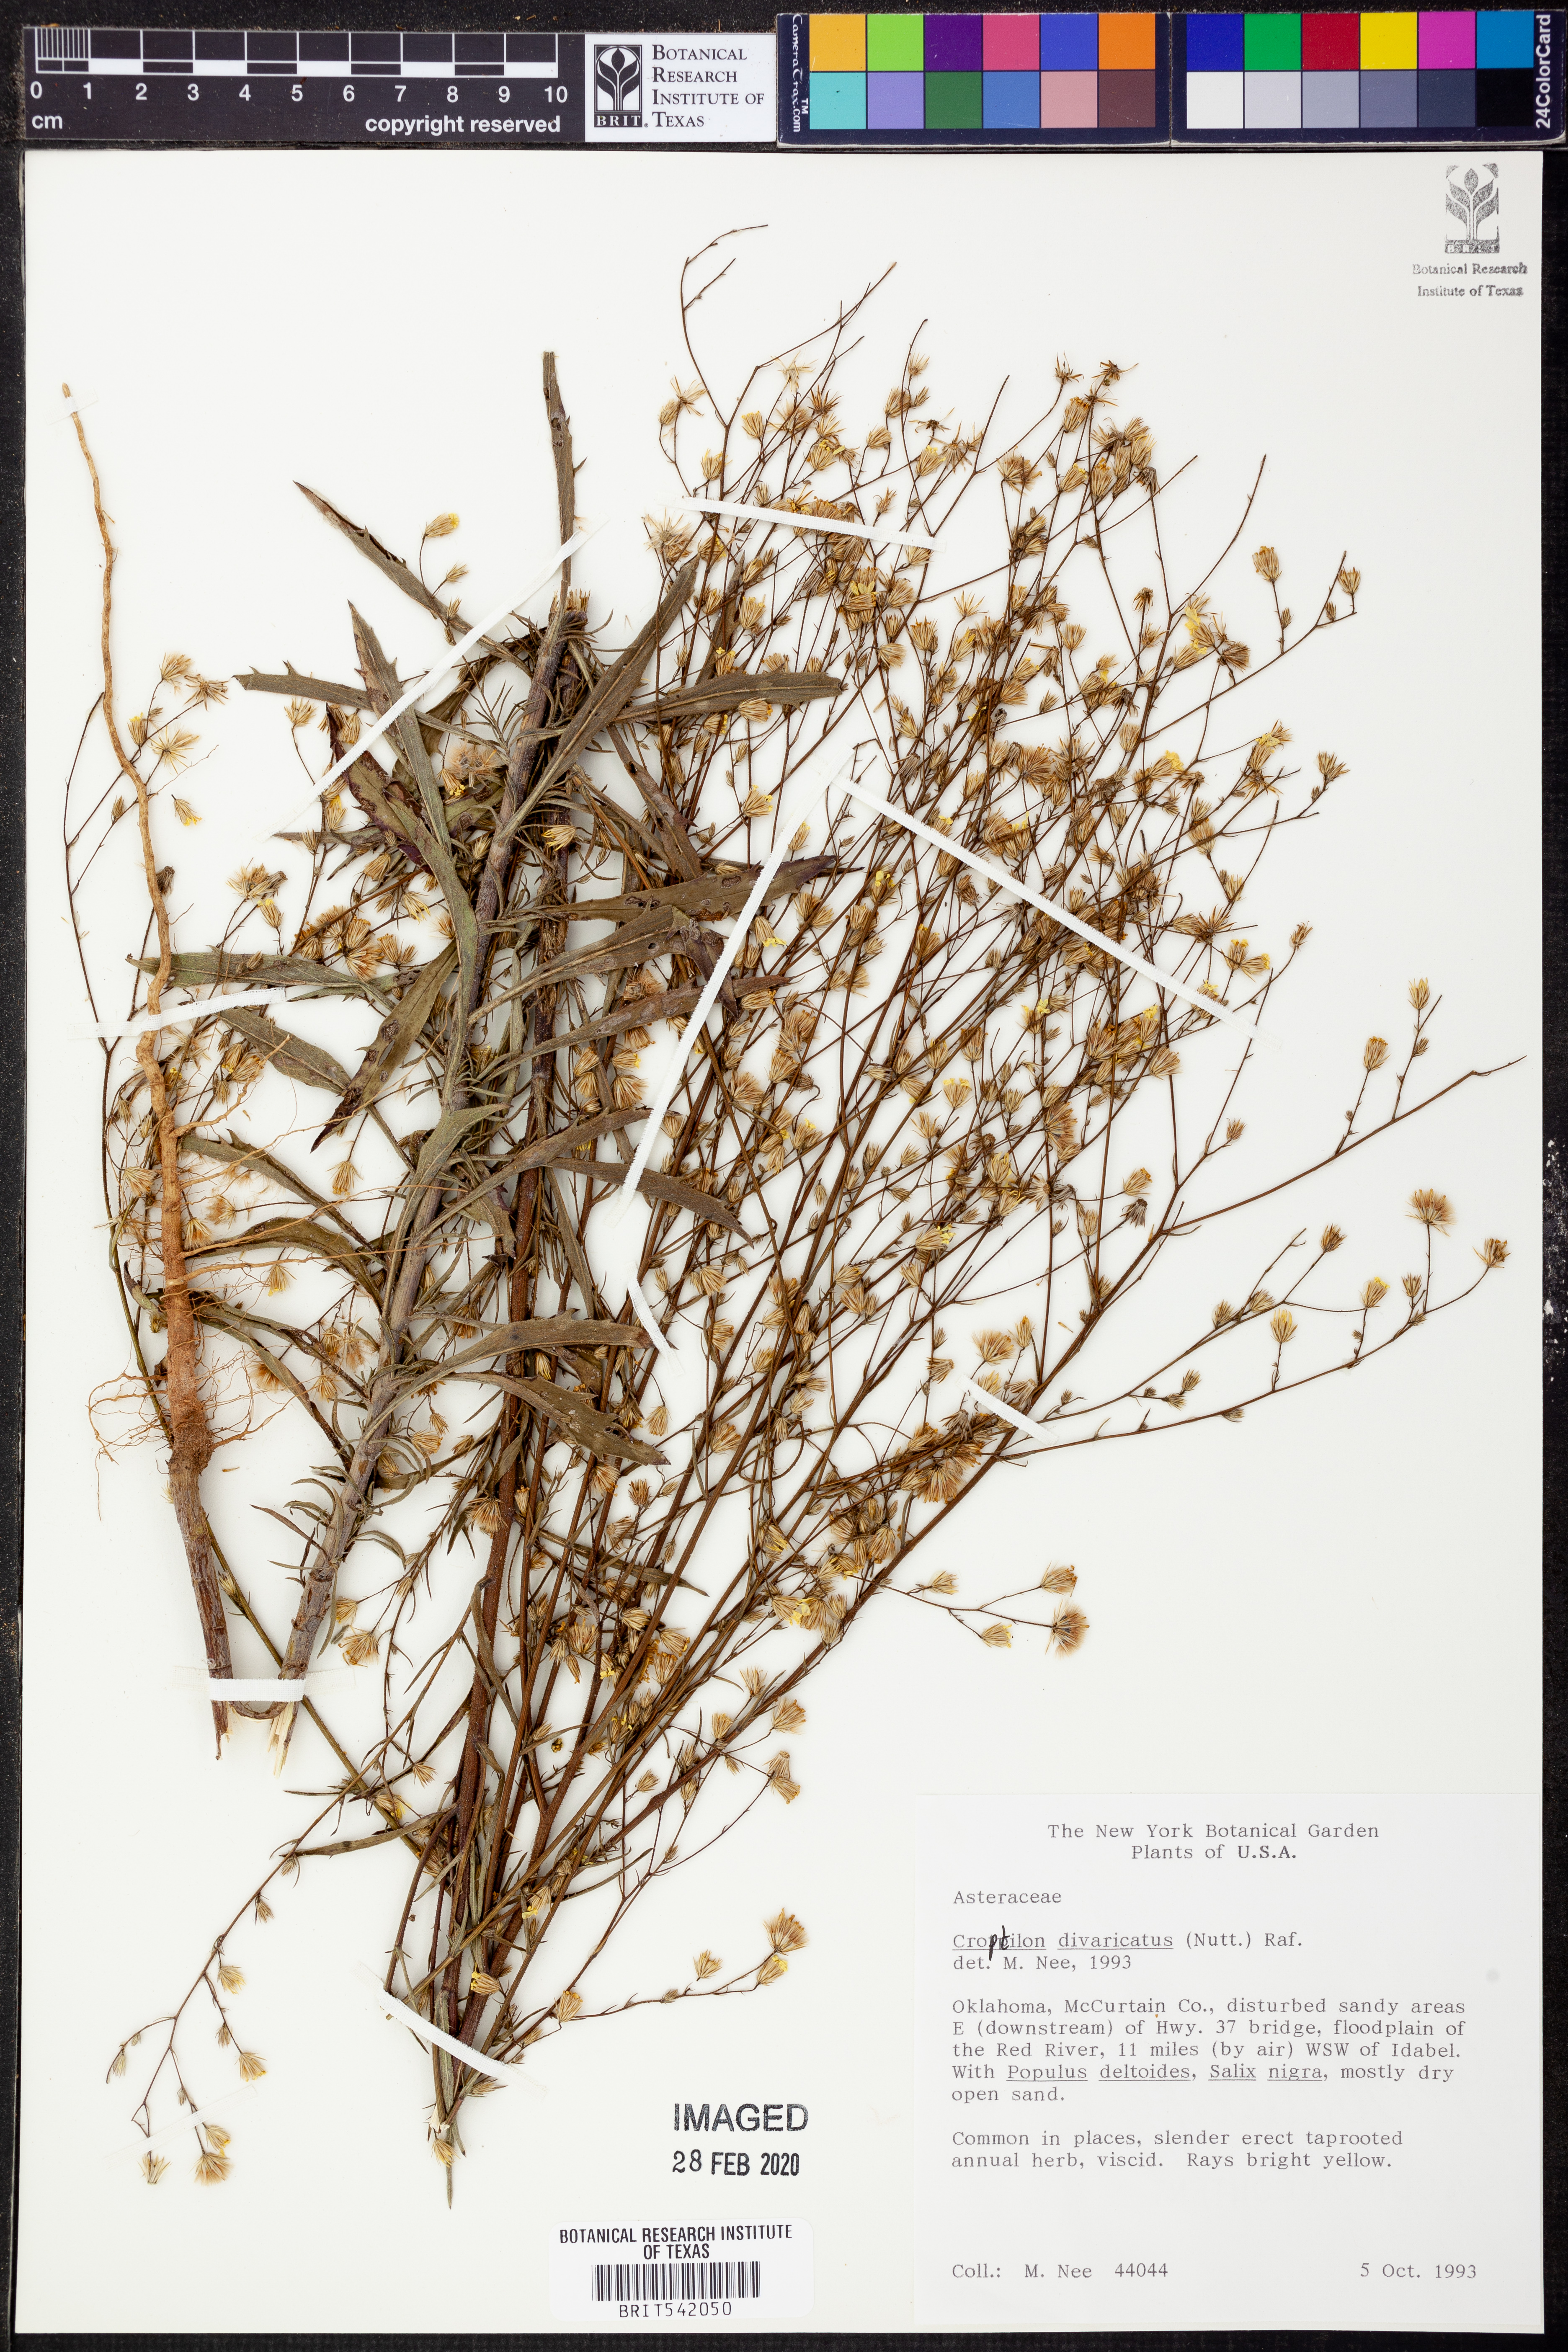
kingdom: Plantae
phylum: Tracheophyta
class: Magnoliopsida
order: Asterales
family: Asteraceae
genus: Croptilon
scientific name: Croptilon divaricatum
